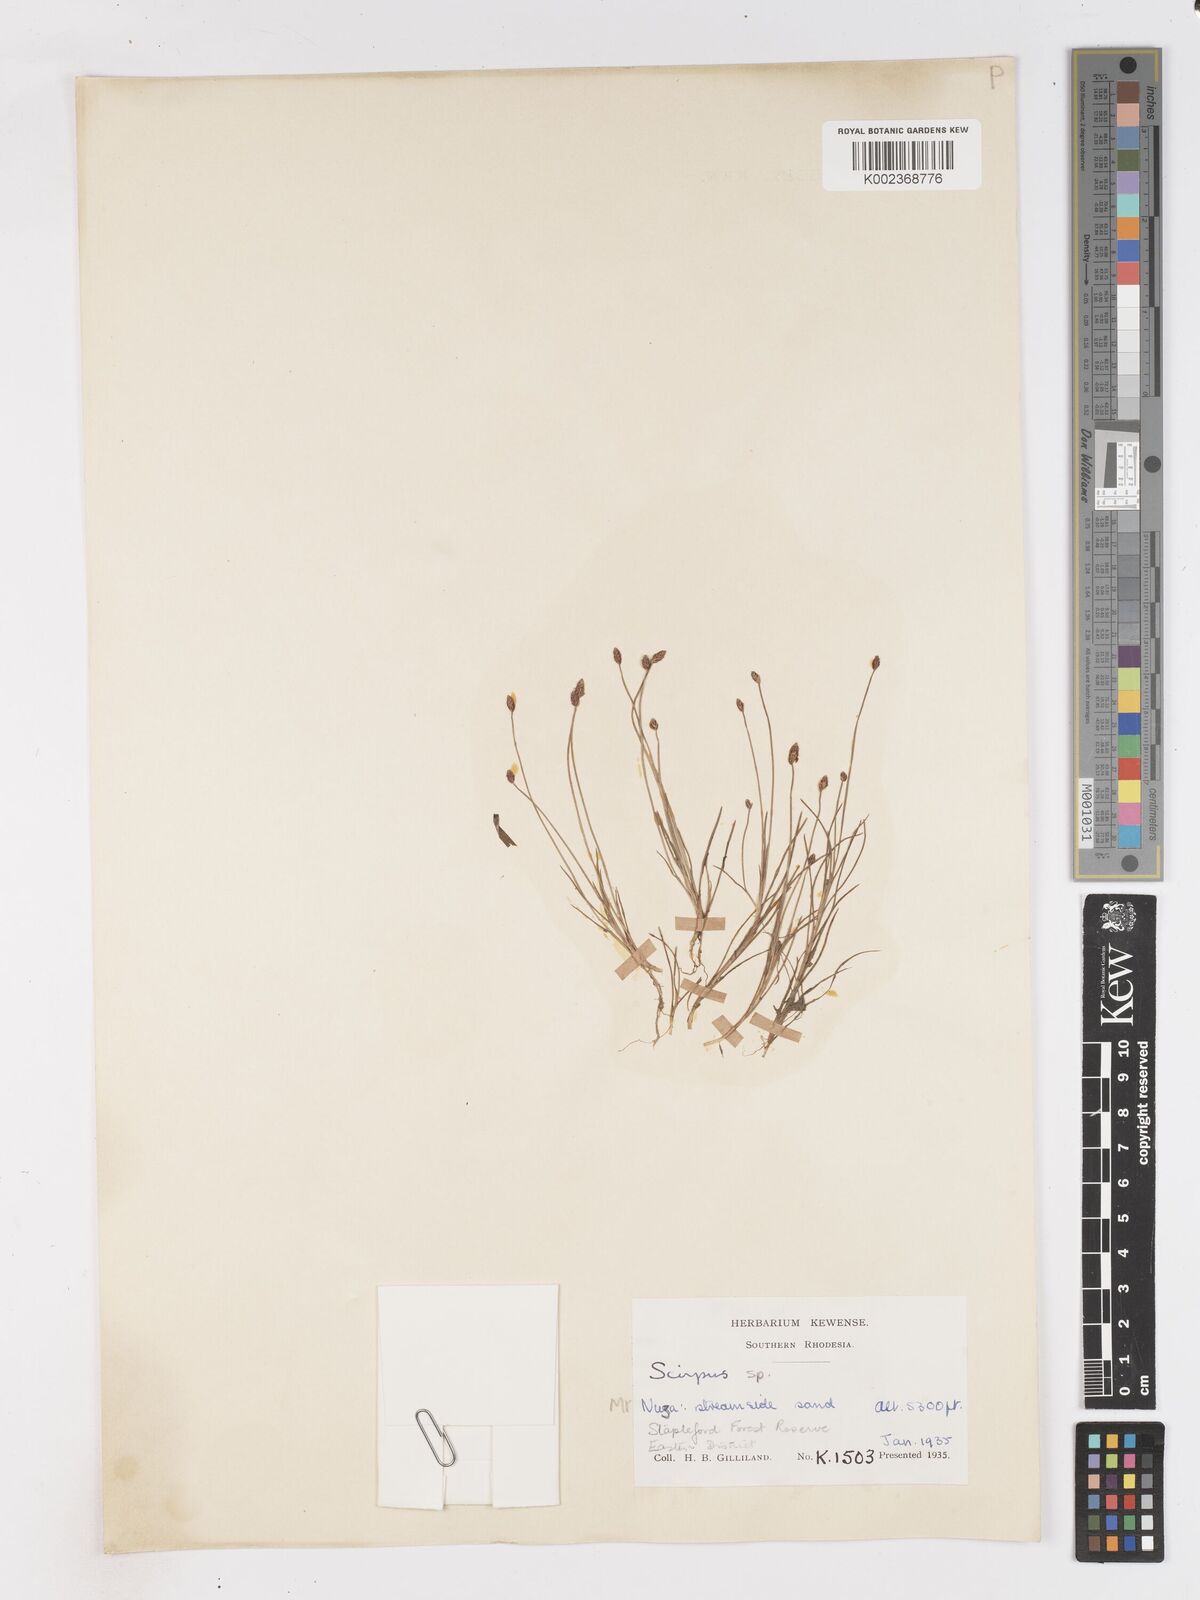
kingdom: Plantae
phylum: Tracheophyta
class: Liliopsida
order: Poales
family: Cyperaceae
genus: Isolepis
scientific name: Isolepis fluitans
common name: Floating club-rush
